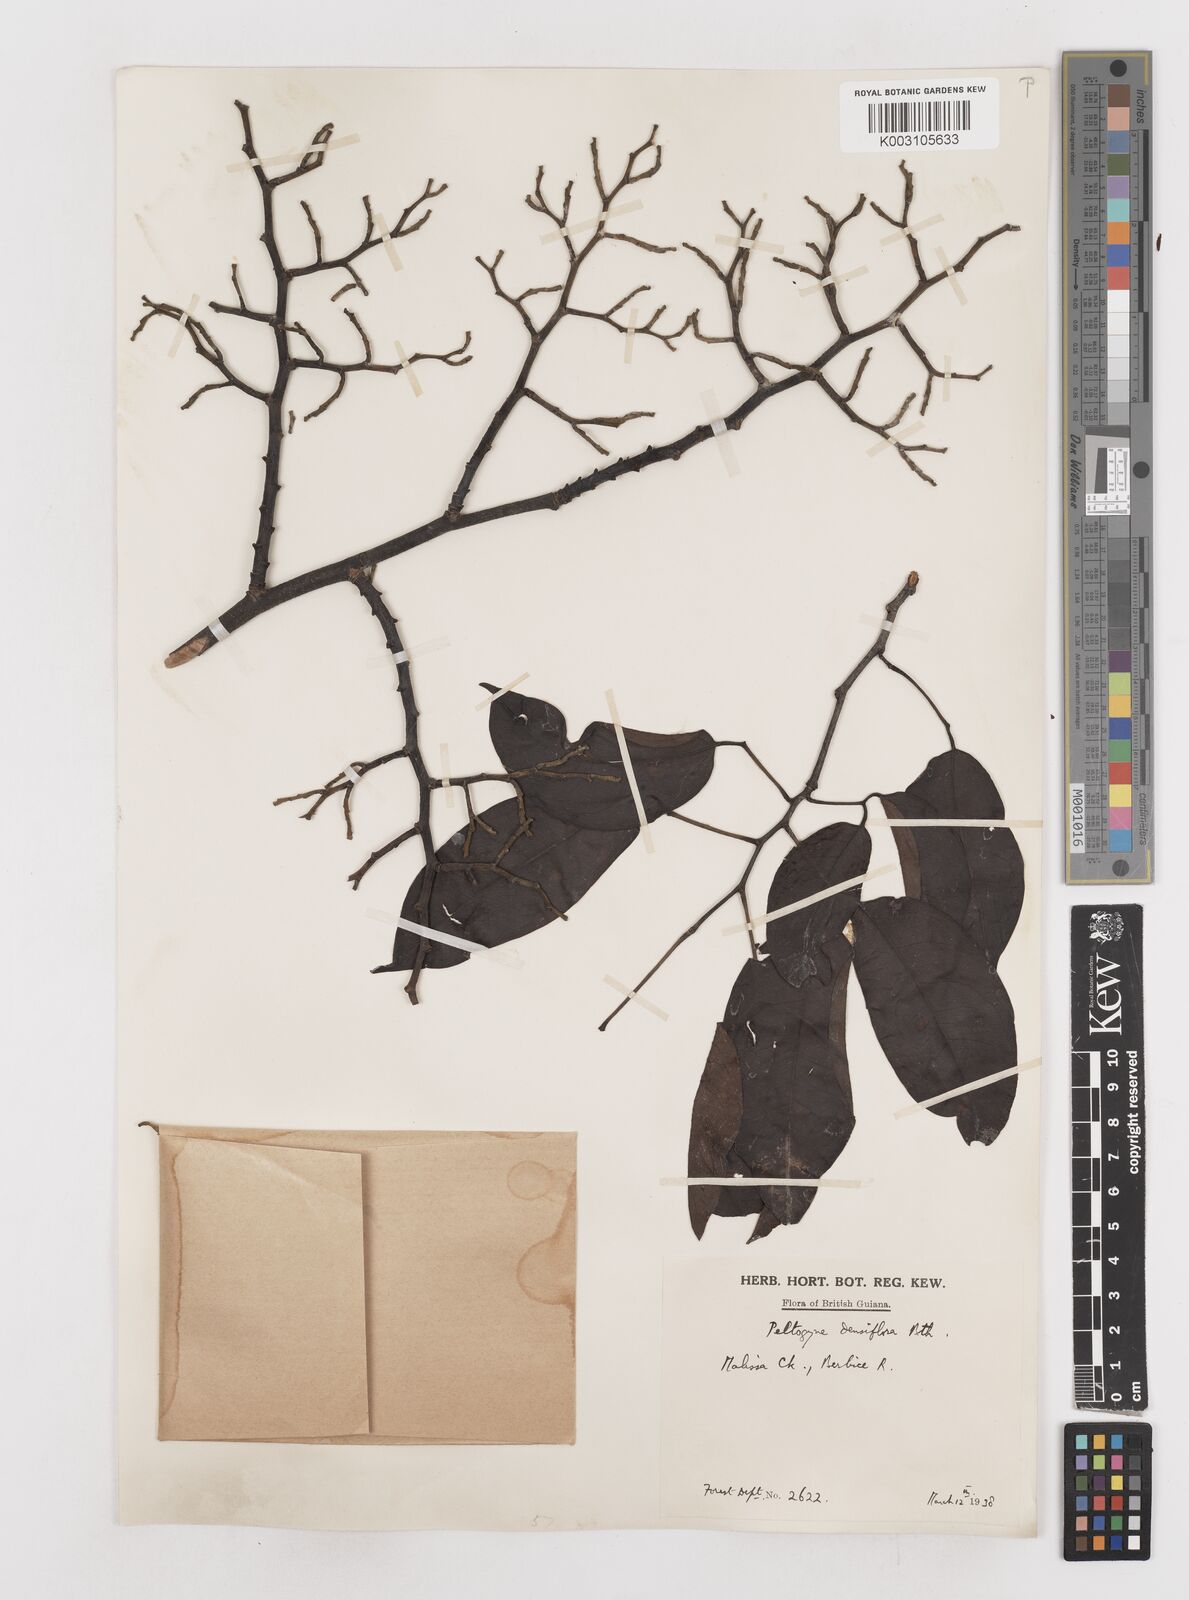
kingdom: Plantae
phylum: Tracheophyta
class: Magnoliopsida
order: Fabales
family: Fabaceae
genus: Peltogyne
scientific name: Peltogyne venosa
